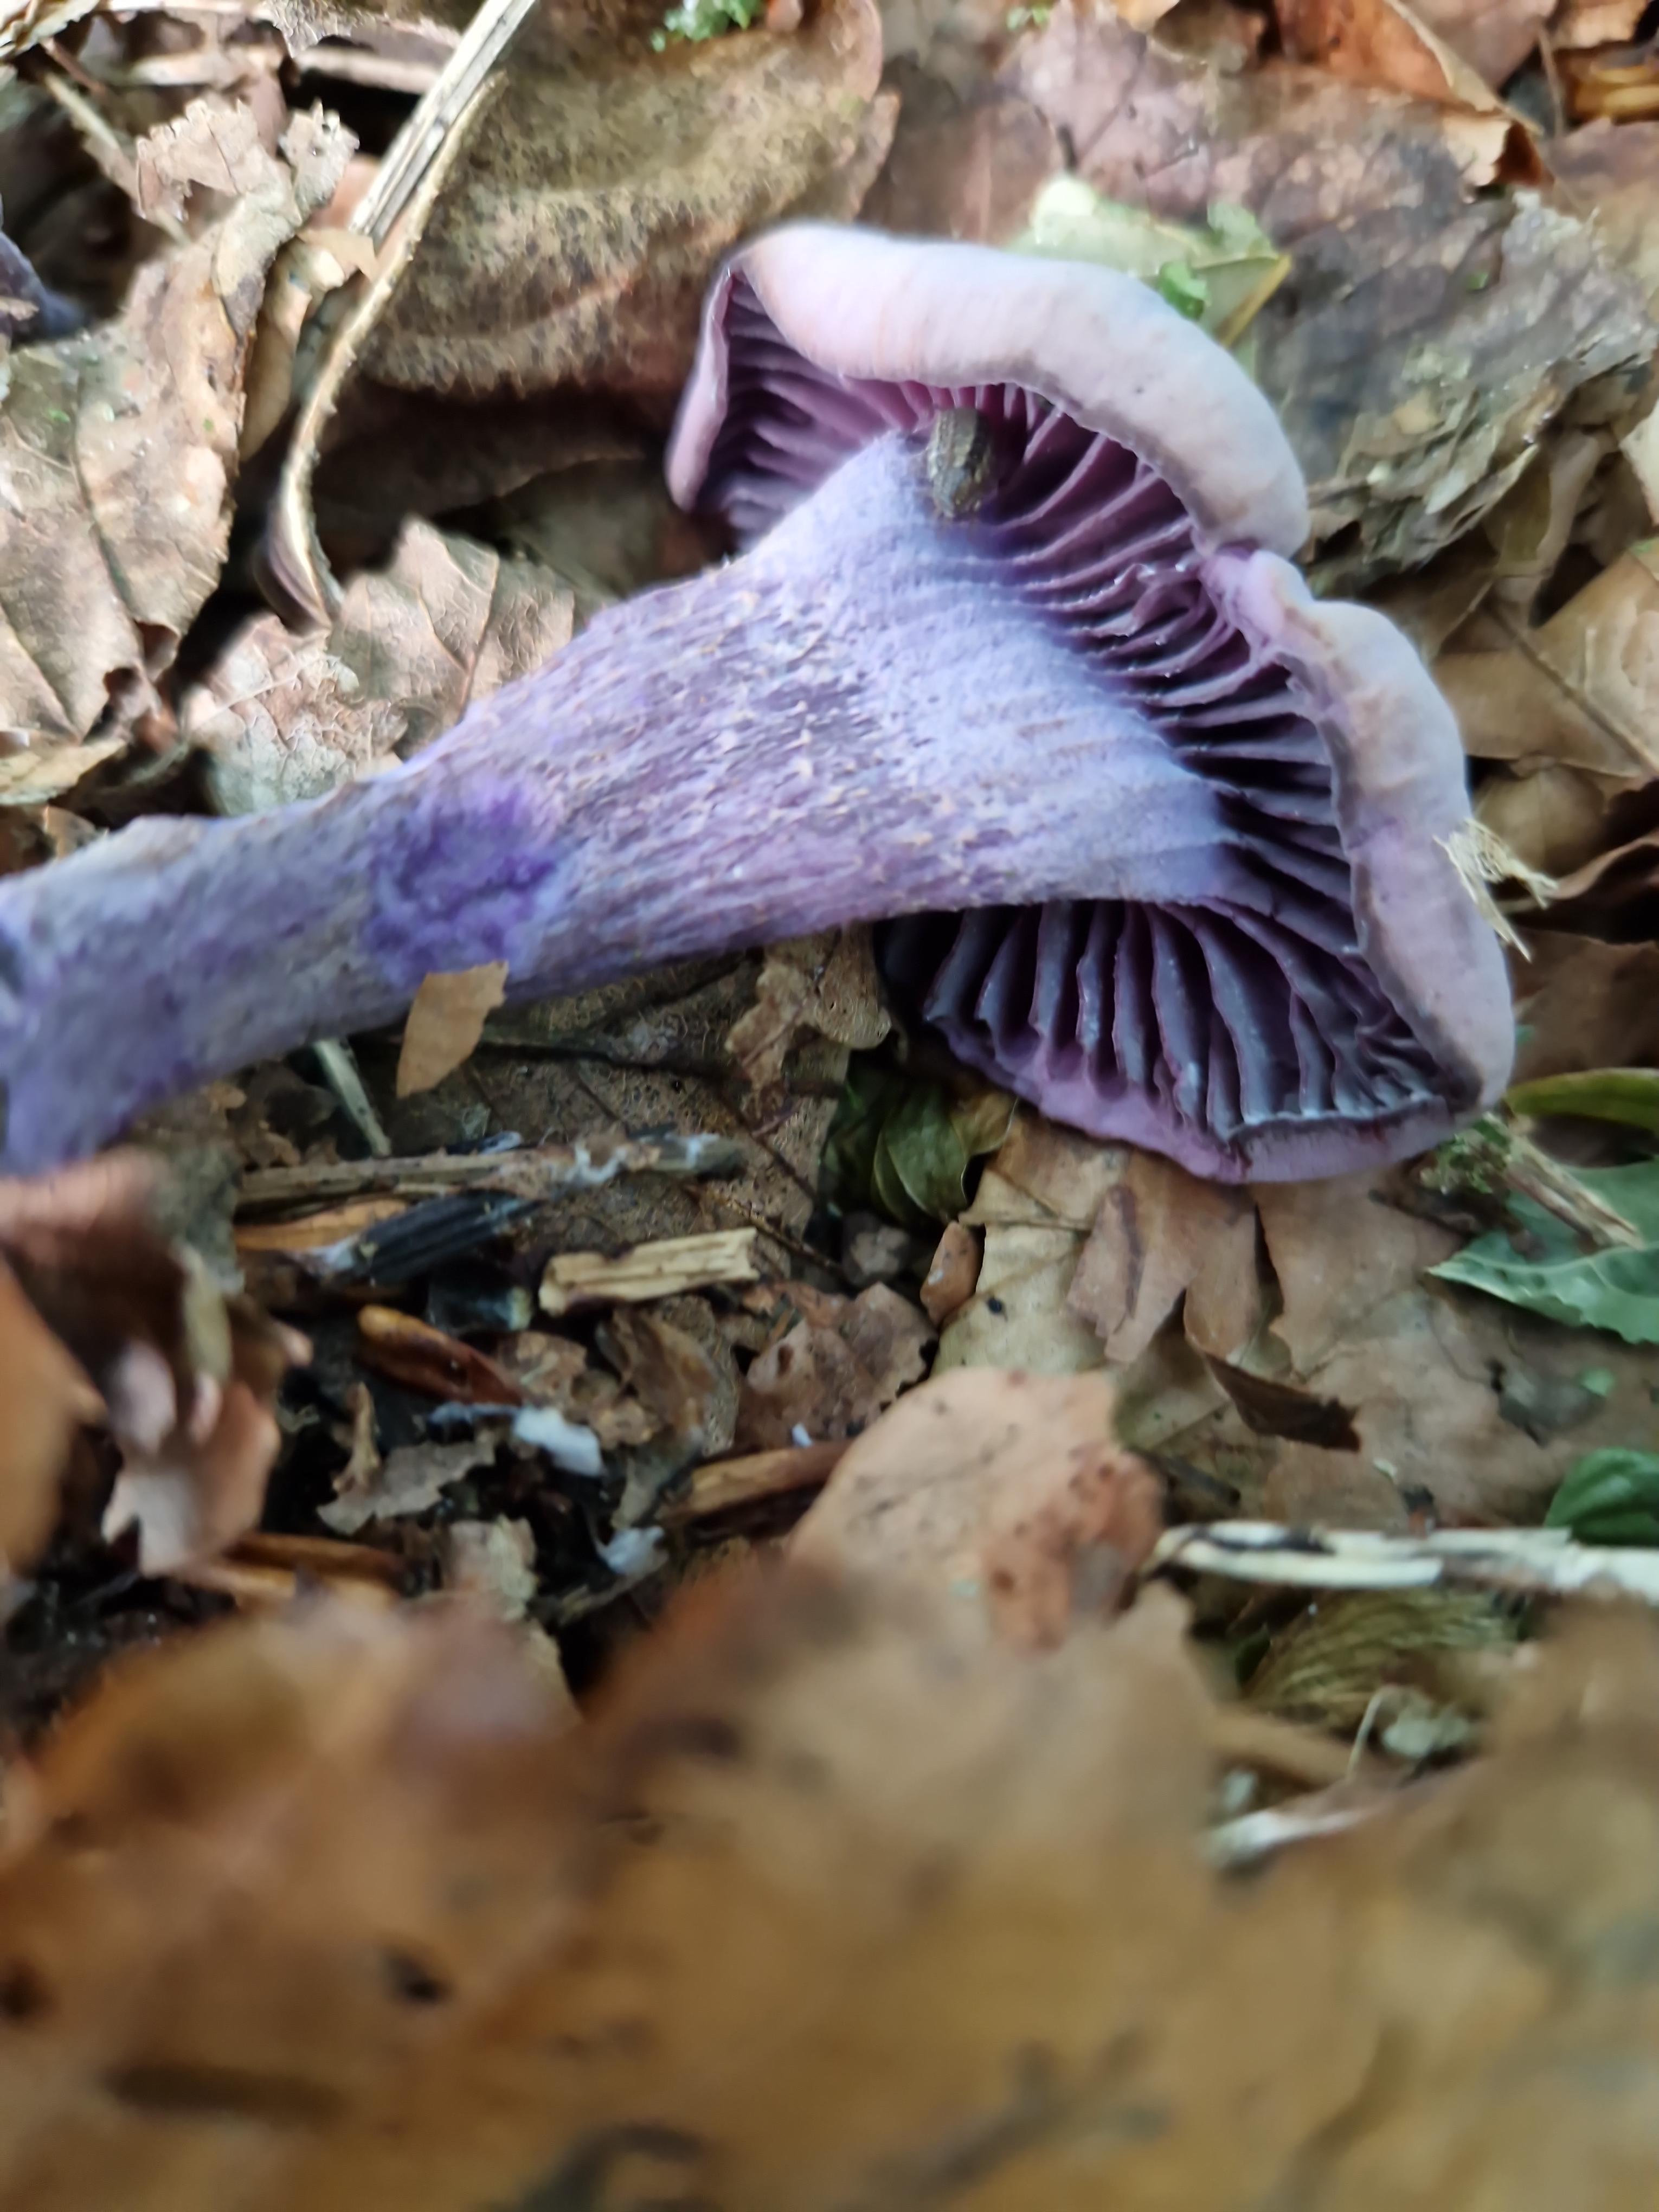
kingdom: Fungi
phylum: Basidiomycota
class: Agaricomycetes
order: Agaricales
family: Hydnangiaceae
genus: Laccaria
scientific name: Laccaria amethystina
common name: violet ametysthat
